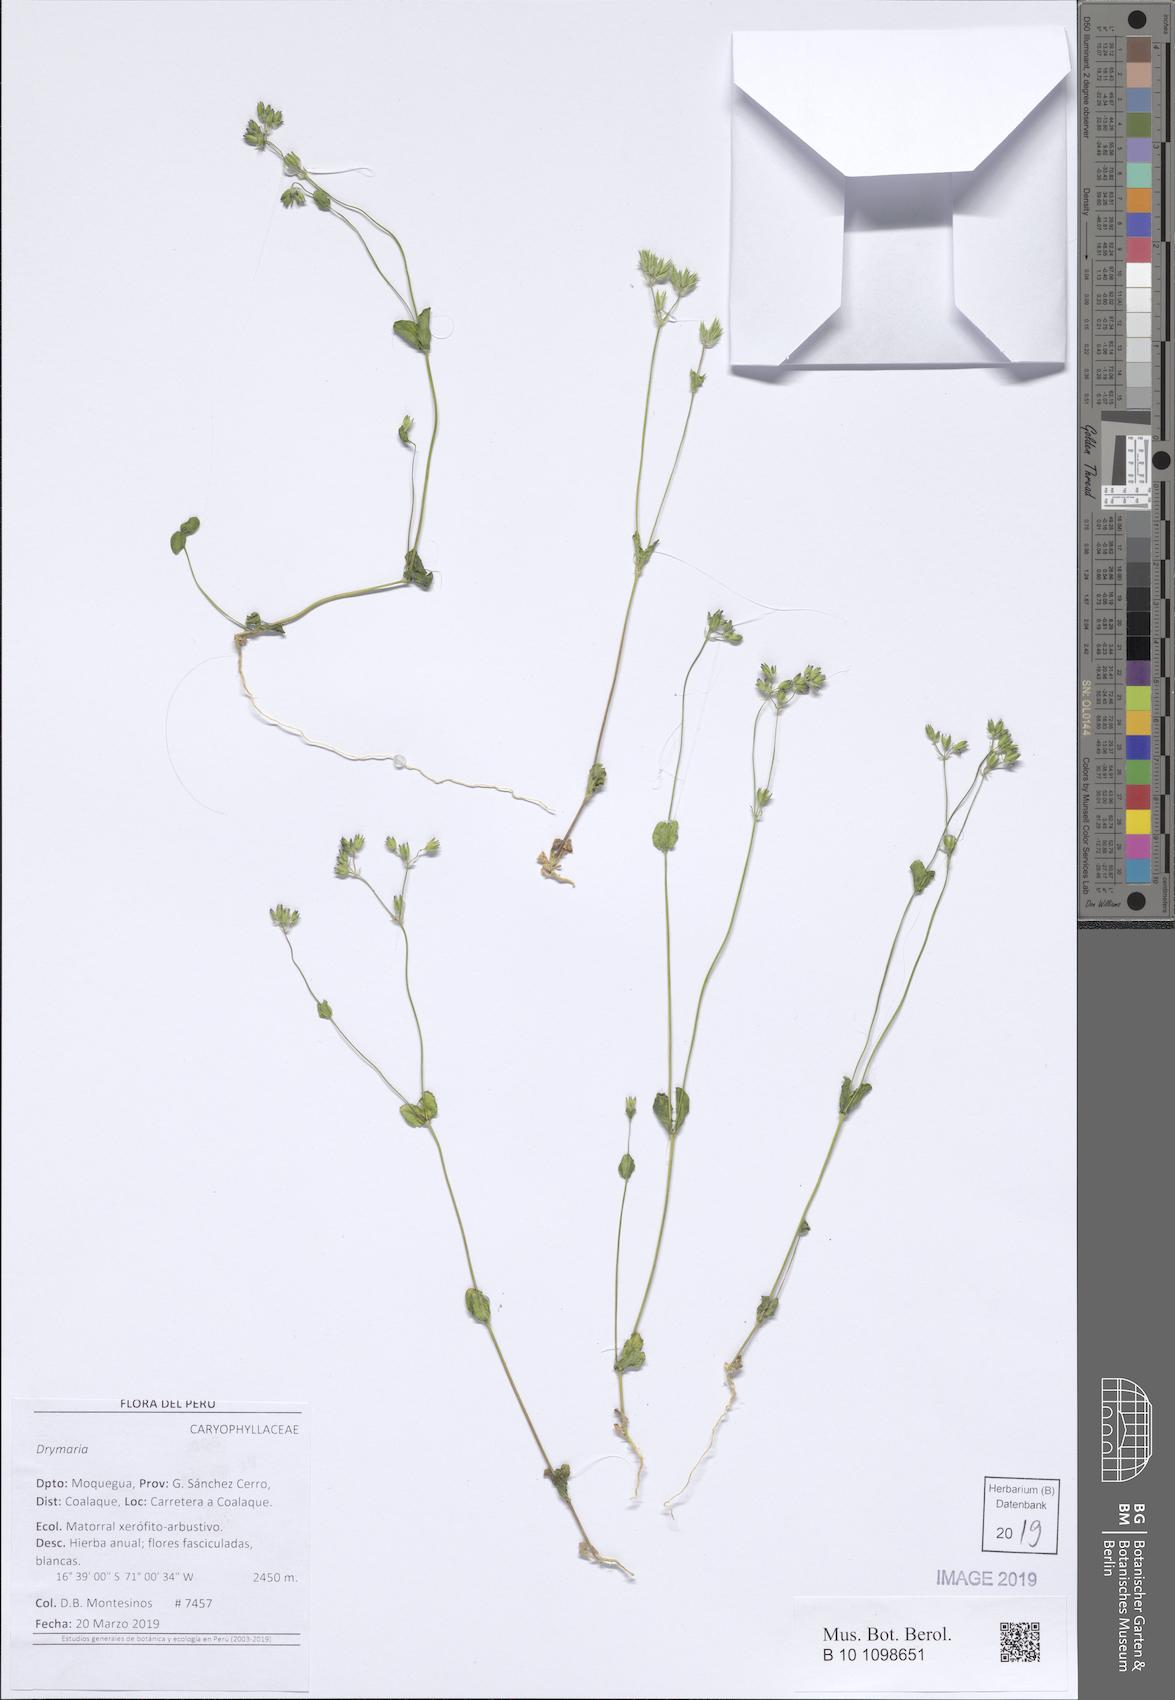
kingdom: Plantae
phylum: Tracheophyta
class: Magnoliopsida
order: Caryophyllales
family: Caryophyllaceae
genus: Drymaria
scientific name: Drymaria
